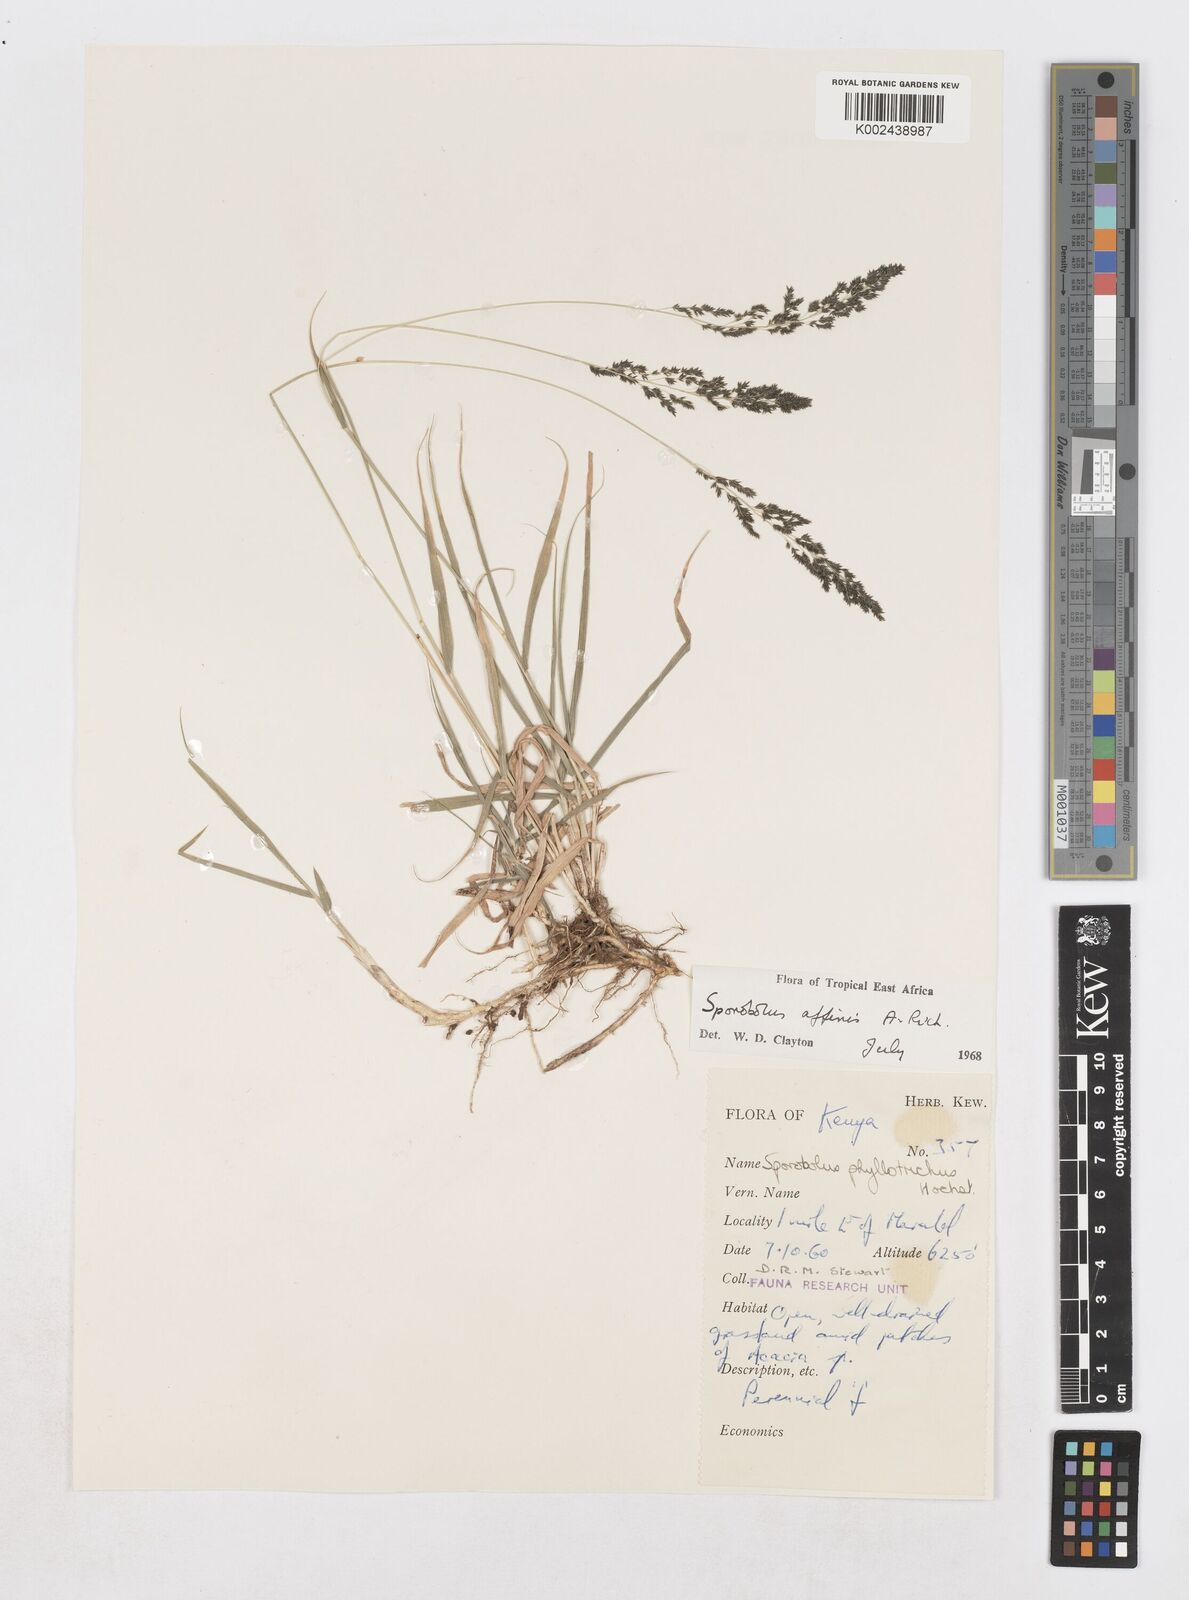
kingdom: Plantae
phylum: Tracheophyta
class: Liliopsida
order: Poales
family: Poaceae
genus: Sporobolus
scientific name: Sporobolus confinis
